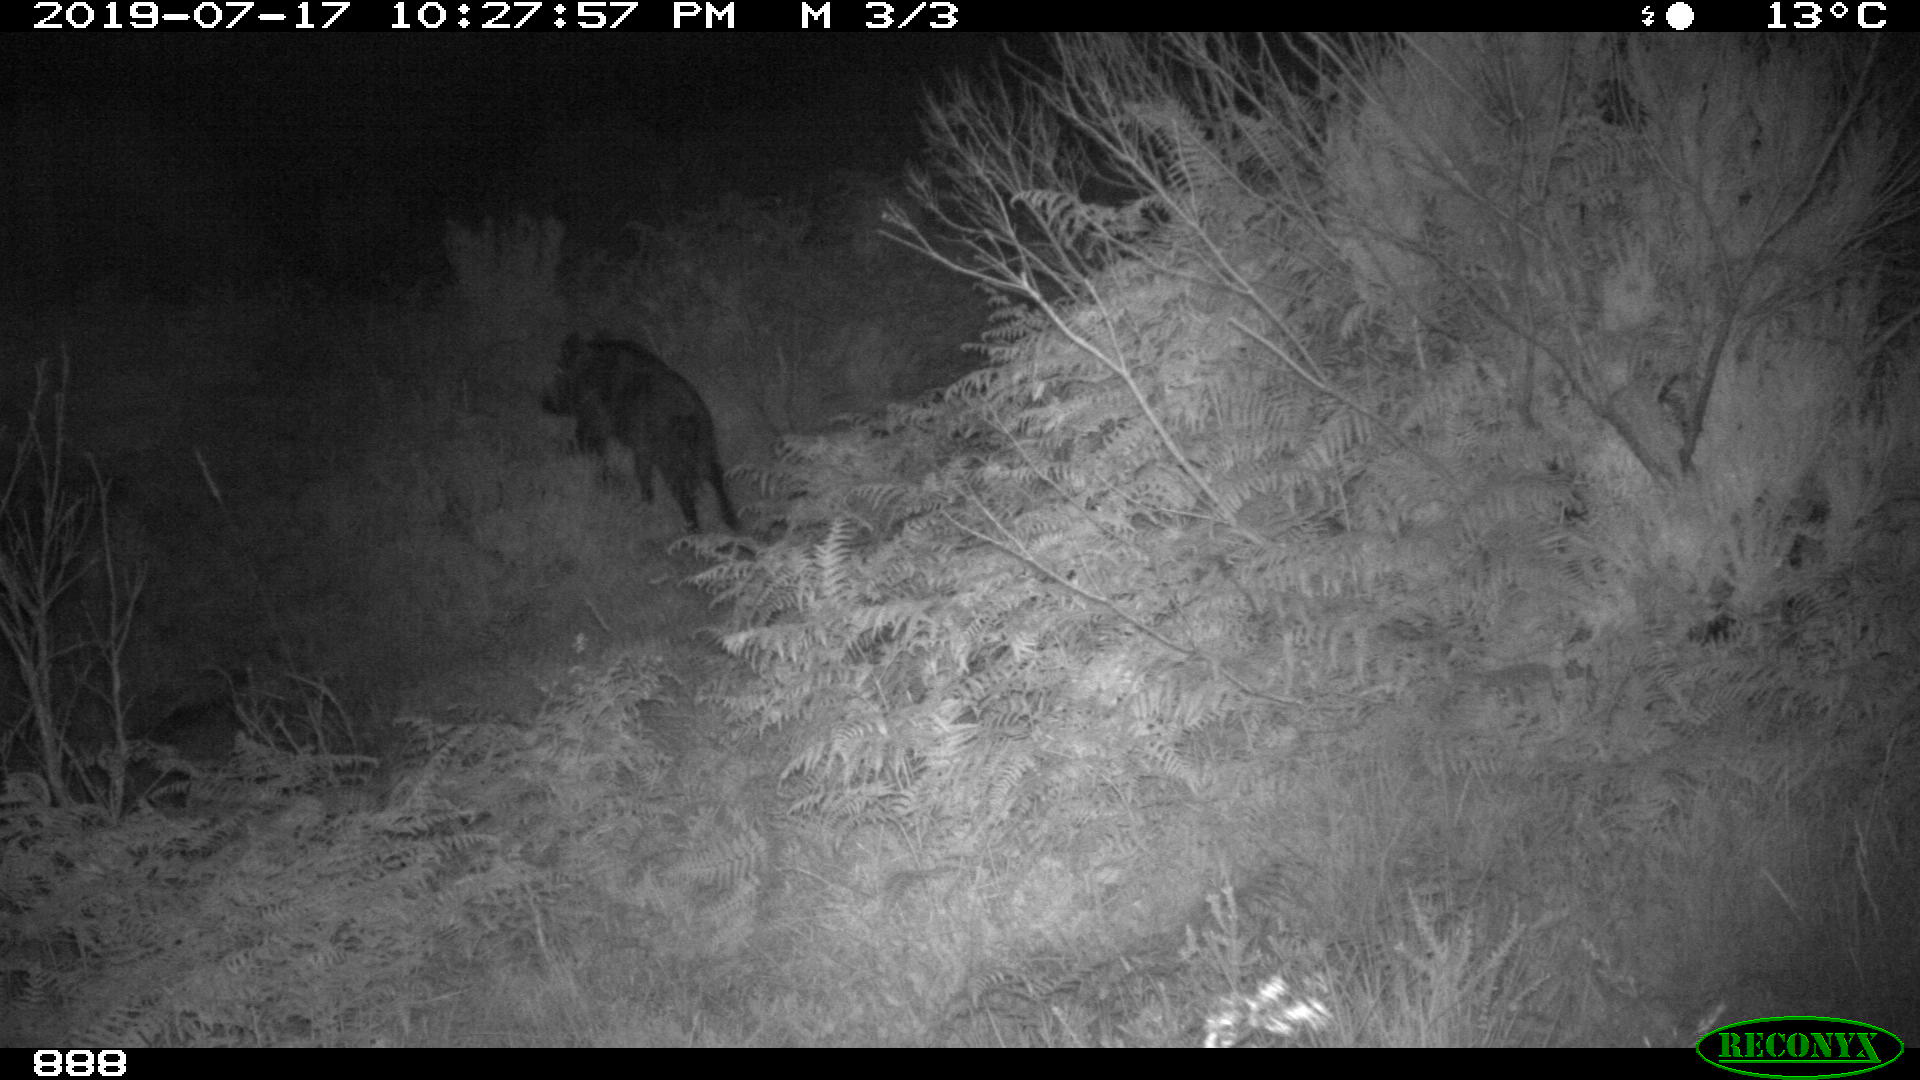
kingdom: Animalia
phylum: Chordata
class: Mammalia
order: Artiodactyla
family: Suidae
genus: Sus
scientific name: Sus scrofa
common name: Wild boar
